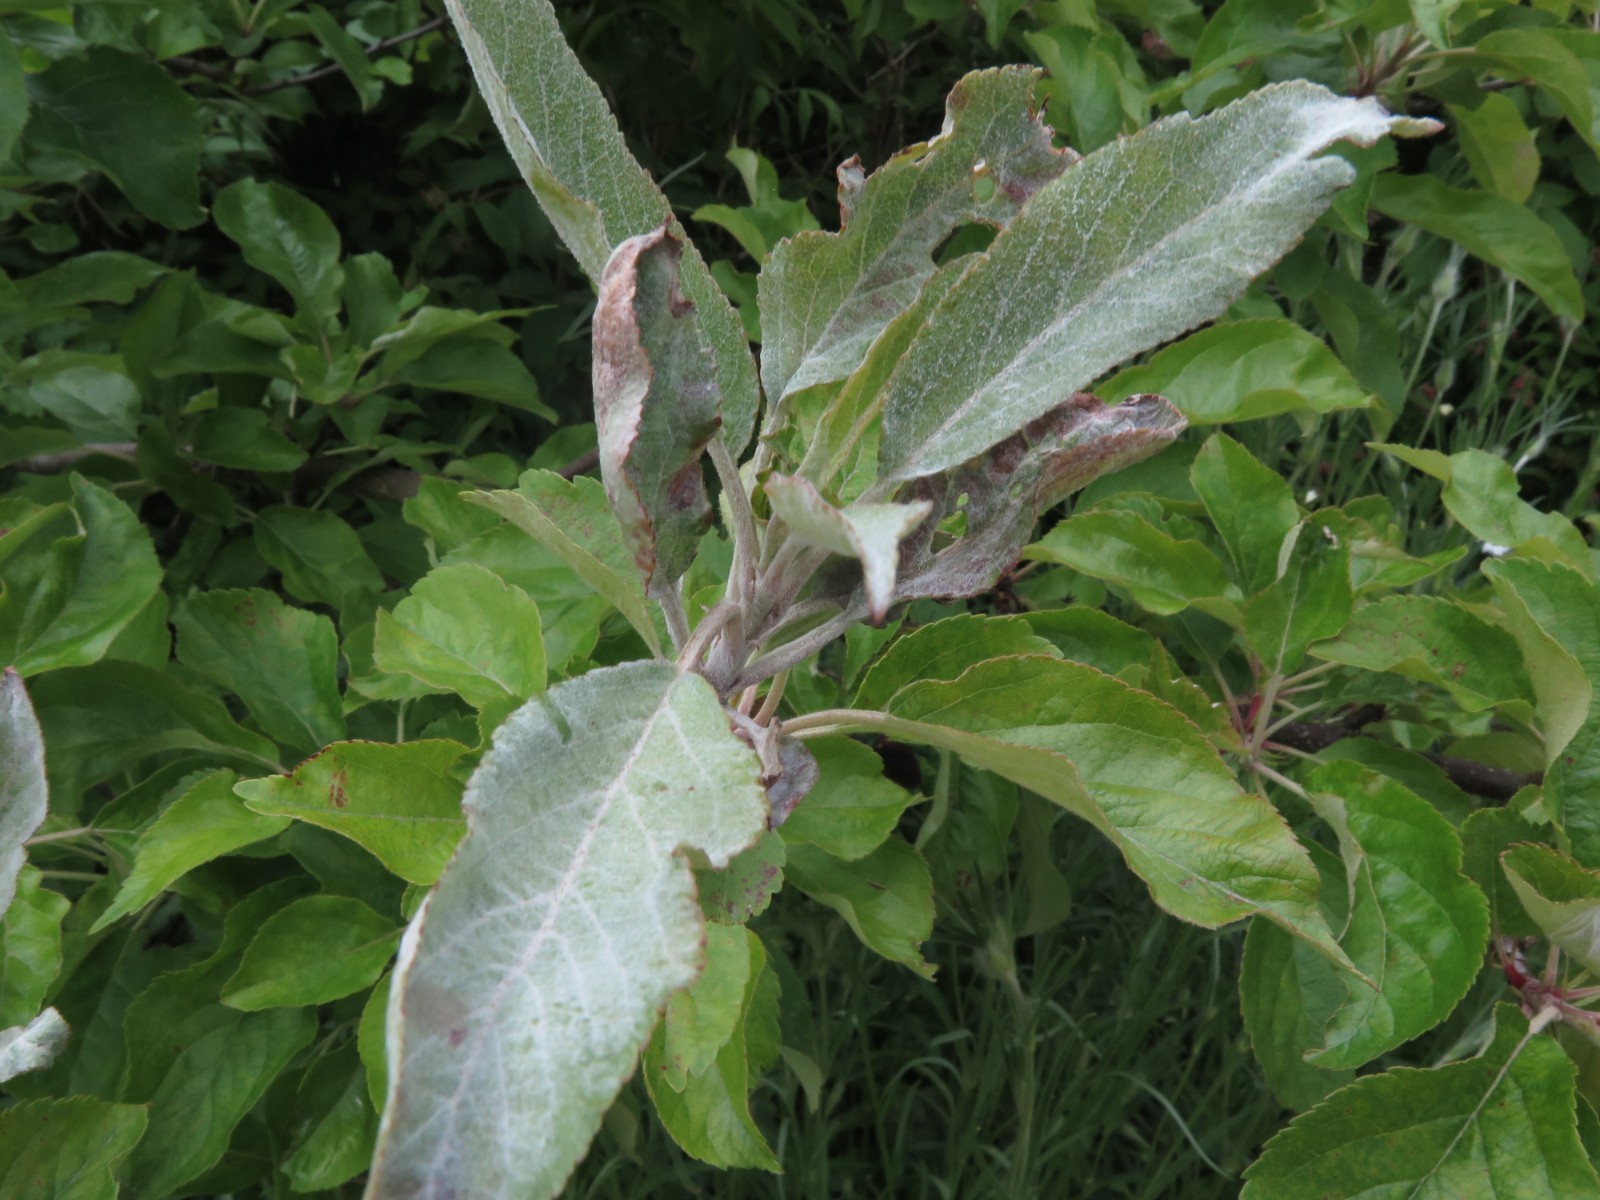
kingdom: Fungi
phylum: Ascomycota
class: Leotiomycetes
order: Helotiales
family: Erysiphaceae
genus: Podosphaera
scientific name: Podosphaera leucotricha
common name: æble-meldug
